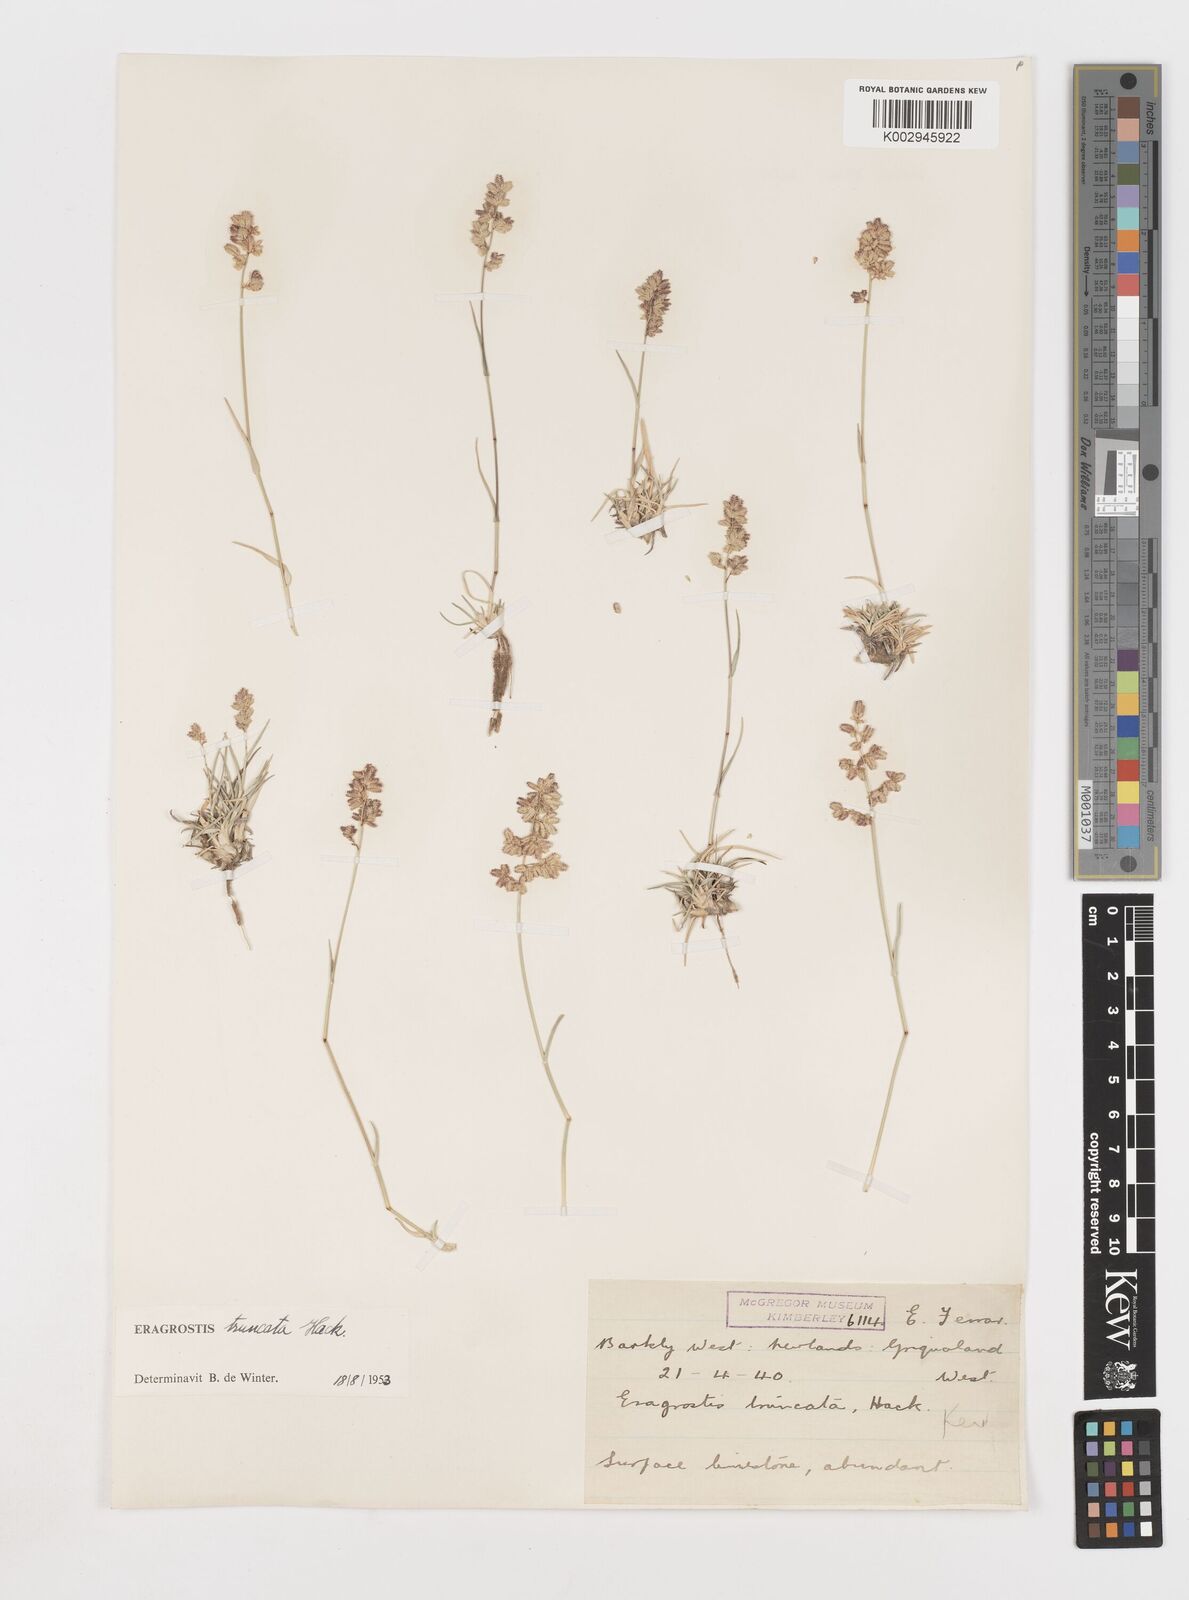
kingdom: Plantae
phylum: Tracheophyta
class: Liliopsida
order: Poales
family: Poaceae
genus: Eragrostis
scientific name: Eragrostis truncata
